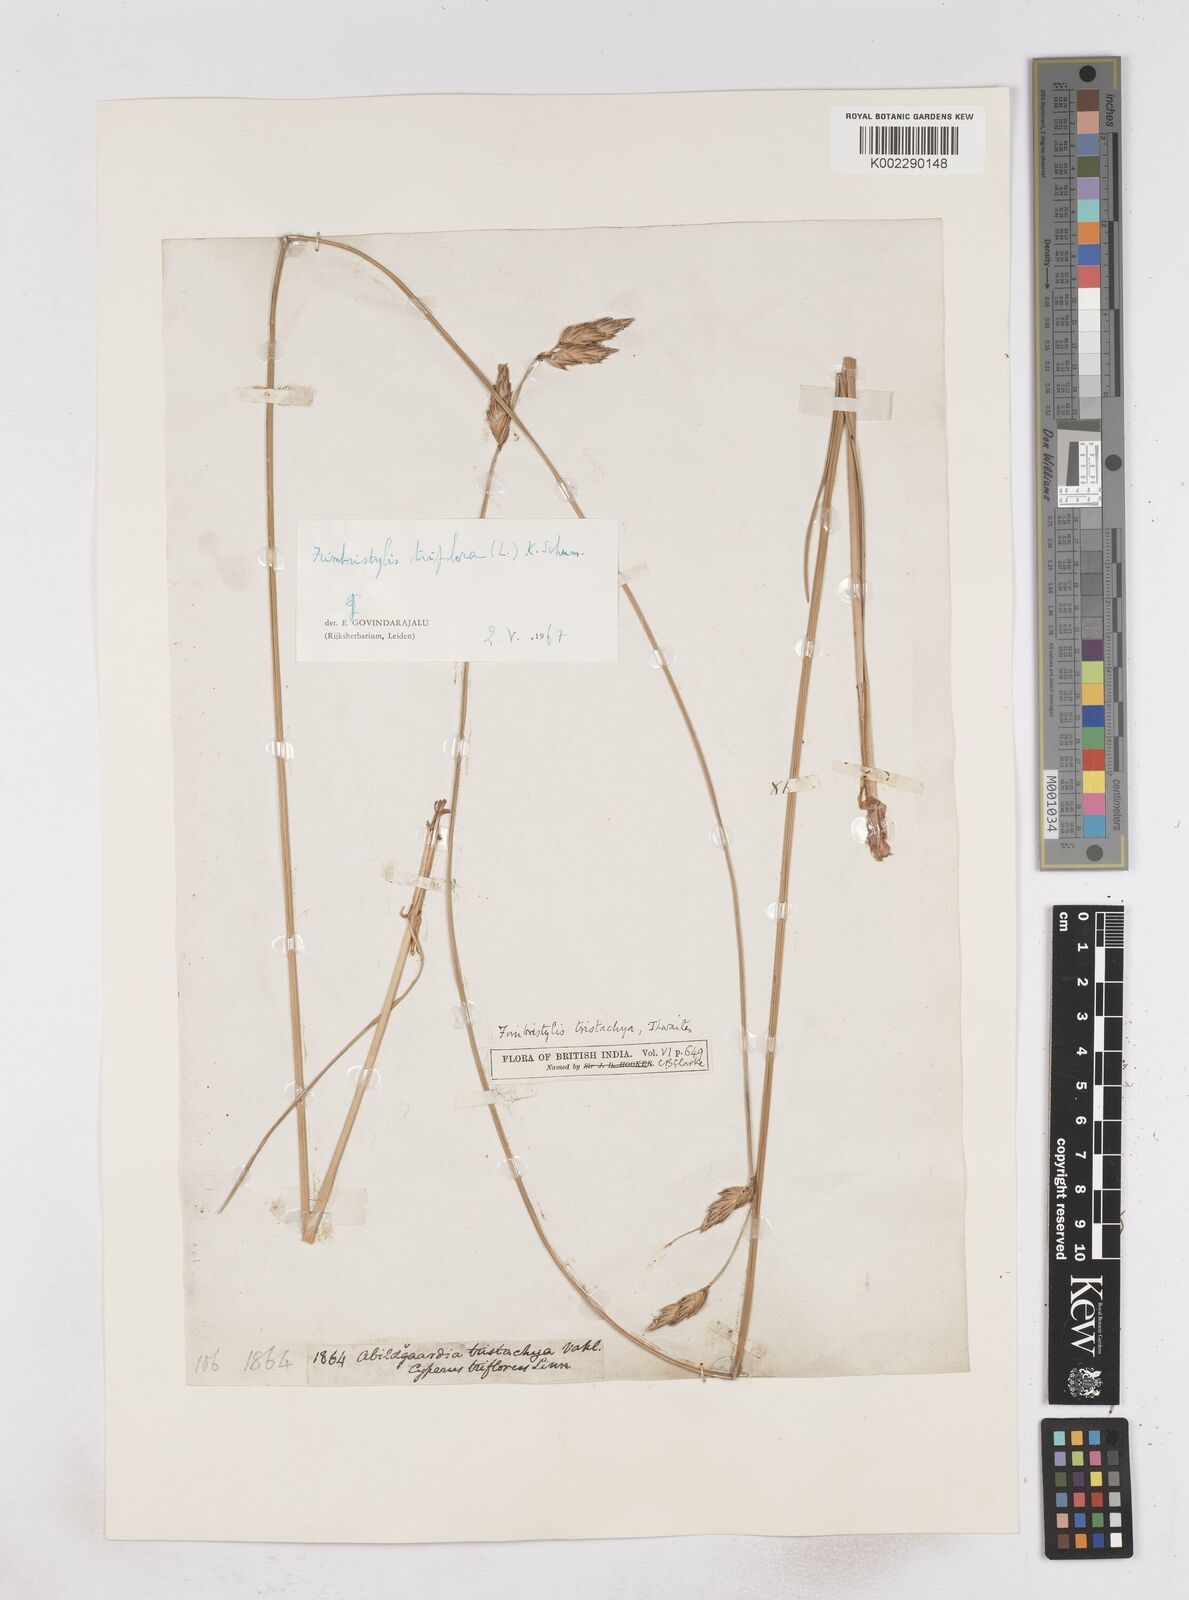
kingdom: Plantae
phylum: Tracheophyta
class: Liliopsida
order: Poales
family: Cyperaceae
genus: Abildgaardia
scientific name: Abildgaardia triflora
